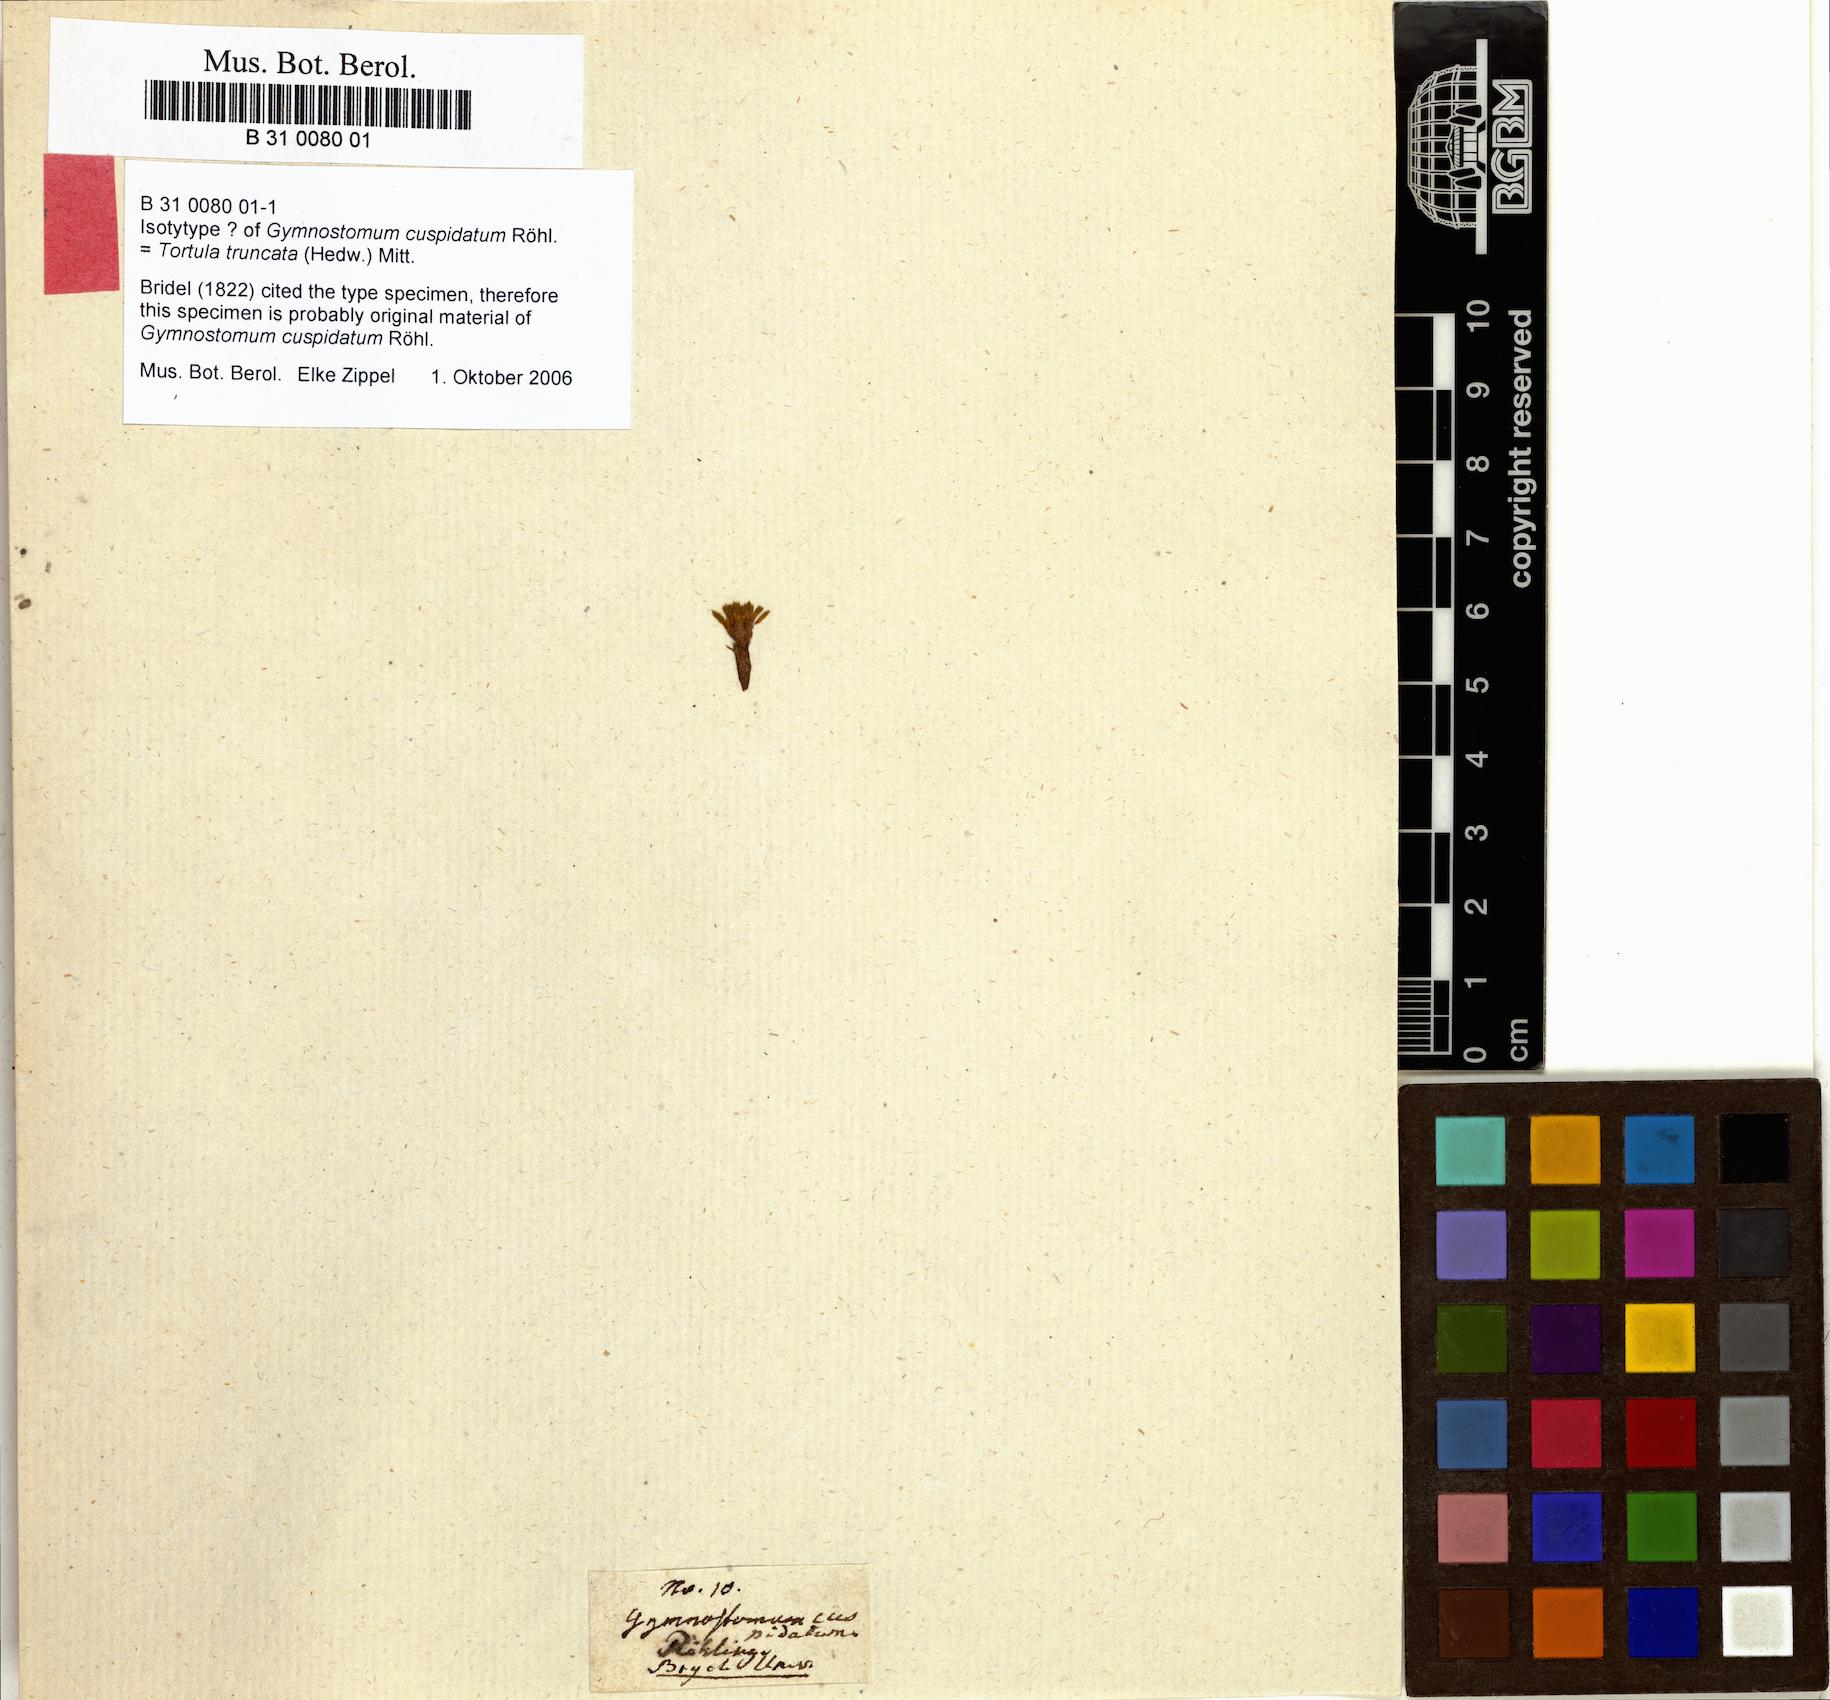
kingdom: Plantae
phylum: Bryophyta
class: Bryopsida
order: Pottiales
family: Pottiaceae
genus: Tortula
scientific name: Tortula truncata
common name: Truncated screw moss
